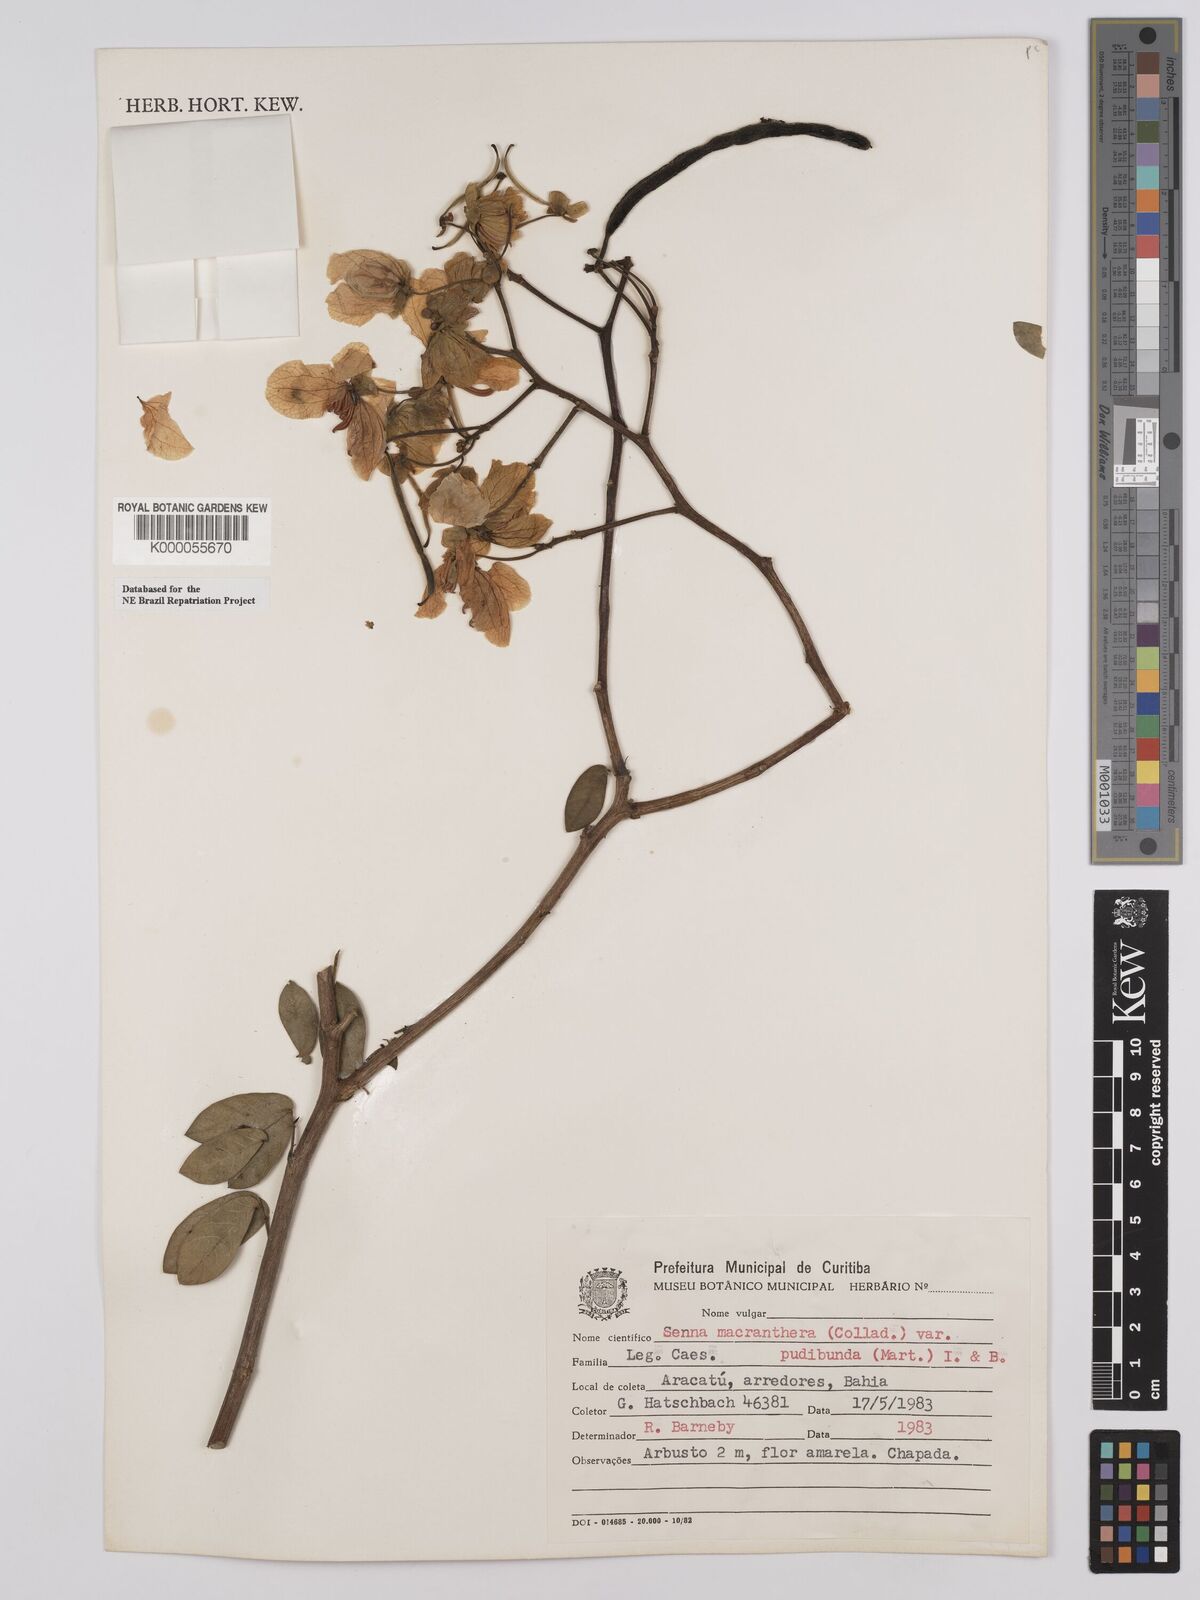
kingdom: Plantae
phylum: Tracheophyta
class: Magnoliopsida
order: Fabales
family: Fabaceae
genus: Senna
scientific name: Senna macranthera
